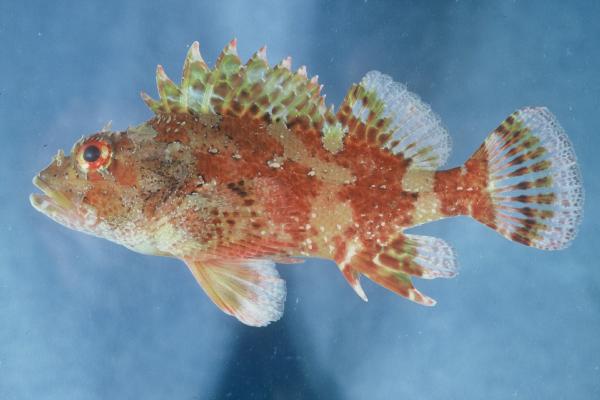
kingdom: Animalia
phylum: Chordata
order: Scorpaeniformes
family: Scorpaenidae
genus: Scorpaena
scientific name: Scorpaena maderensis
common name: Madeira rockfish
